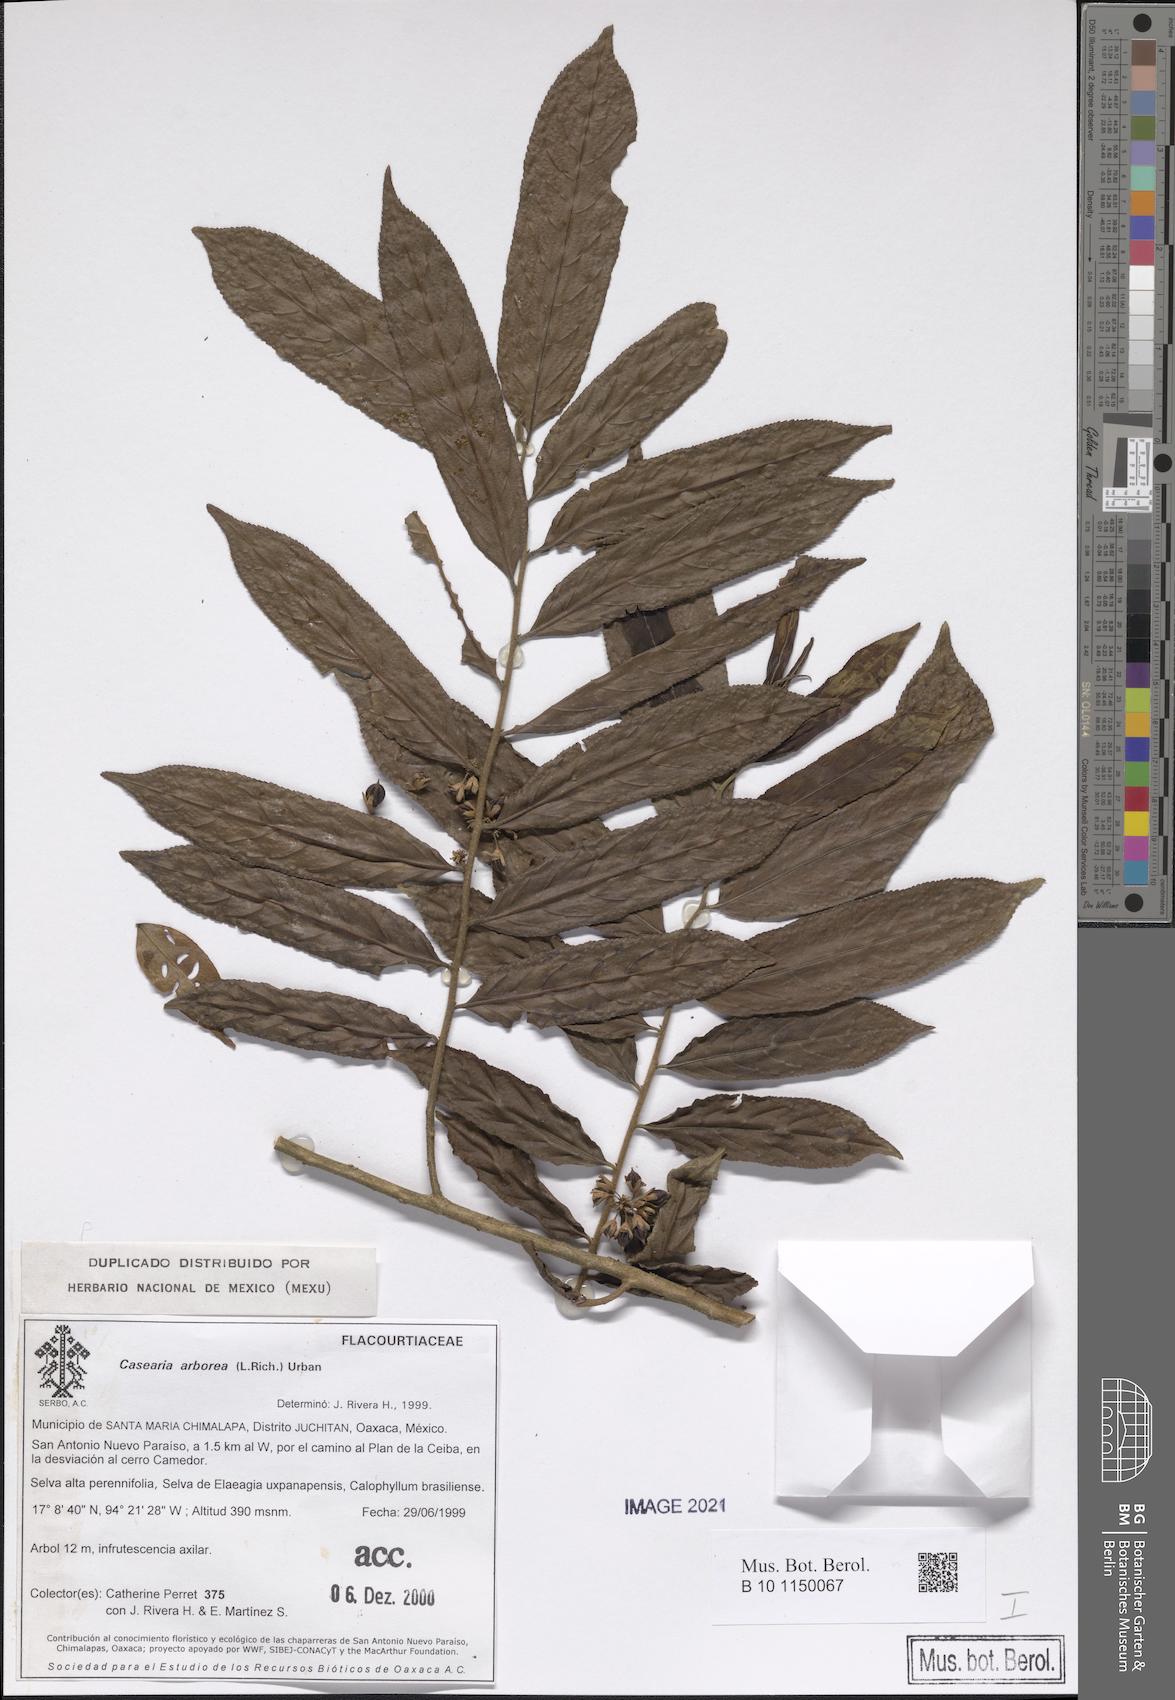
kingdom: Plantae
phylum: Tracheophyta
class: Magnoliopsida
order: Malpighiales
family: Salicaceae
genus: Casearia
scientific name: Casearia arborea
